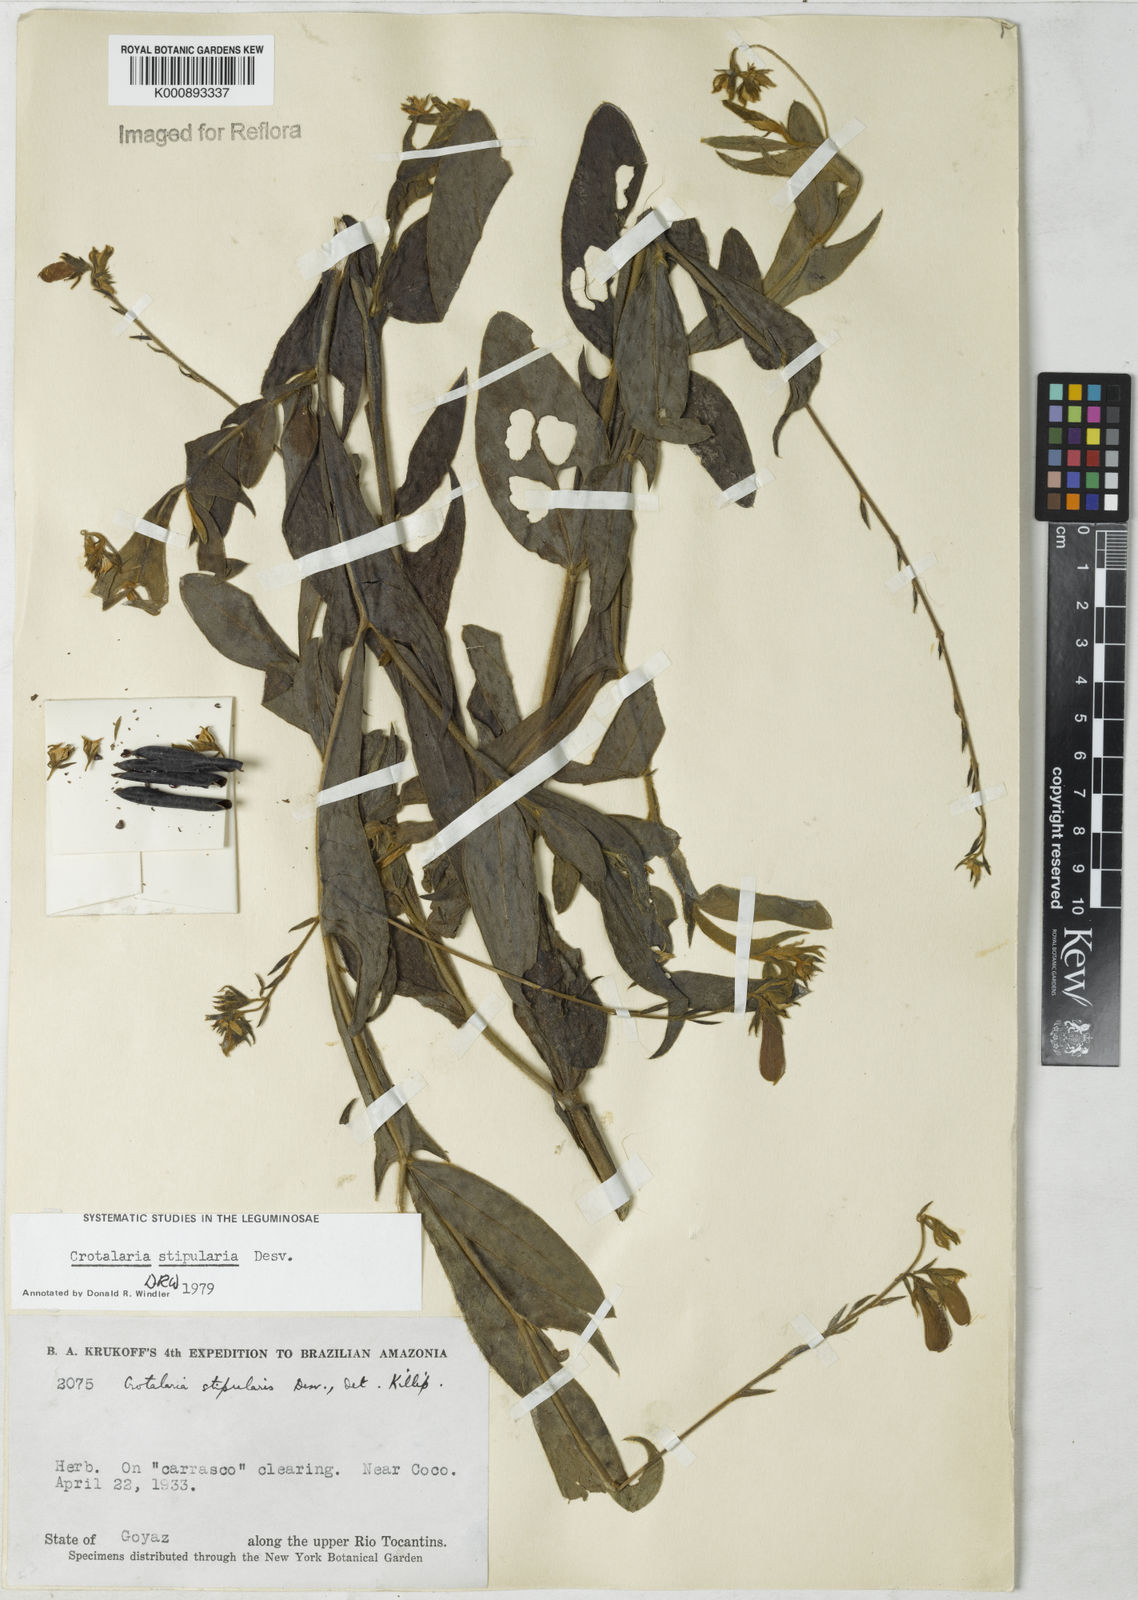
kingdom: Plantae
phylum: Tracheophyta
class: Magnoliopsida
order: Fabales
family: Fabaceae
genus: Crotalaria
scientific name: Crotalaria stipularia
